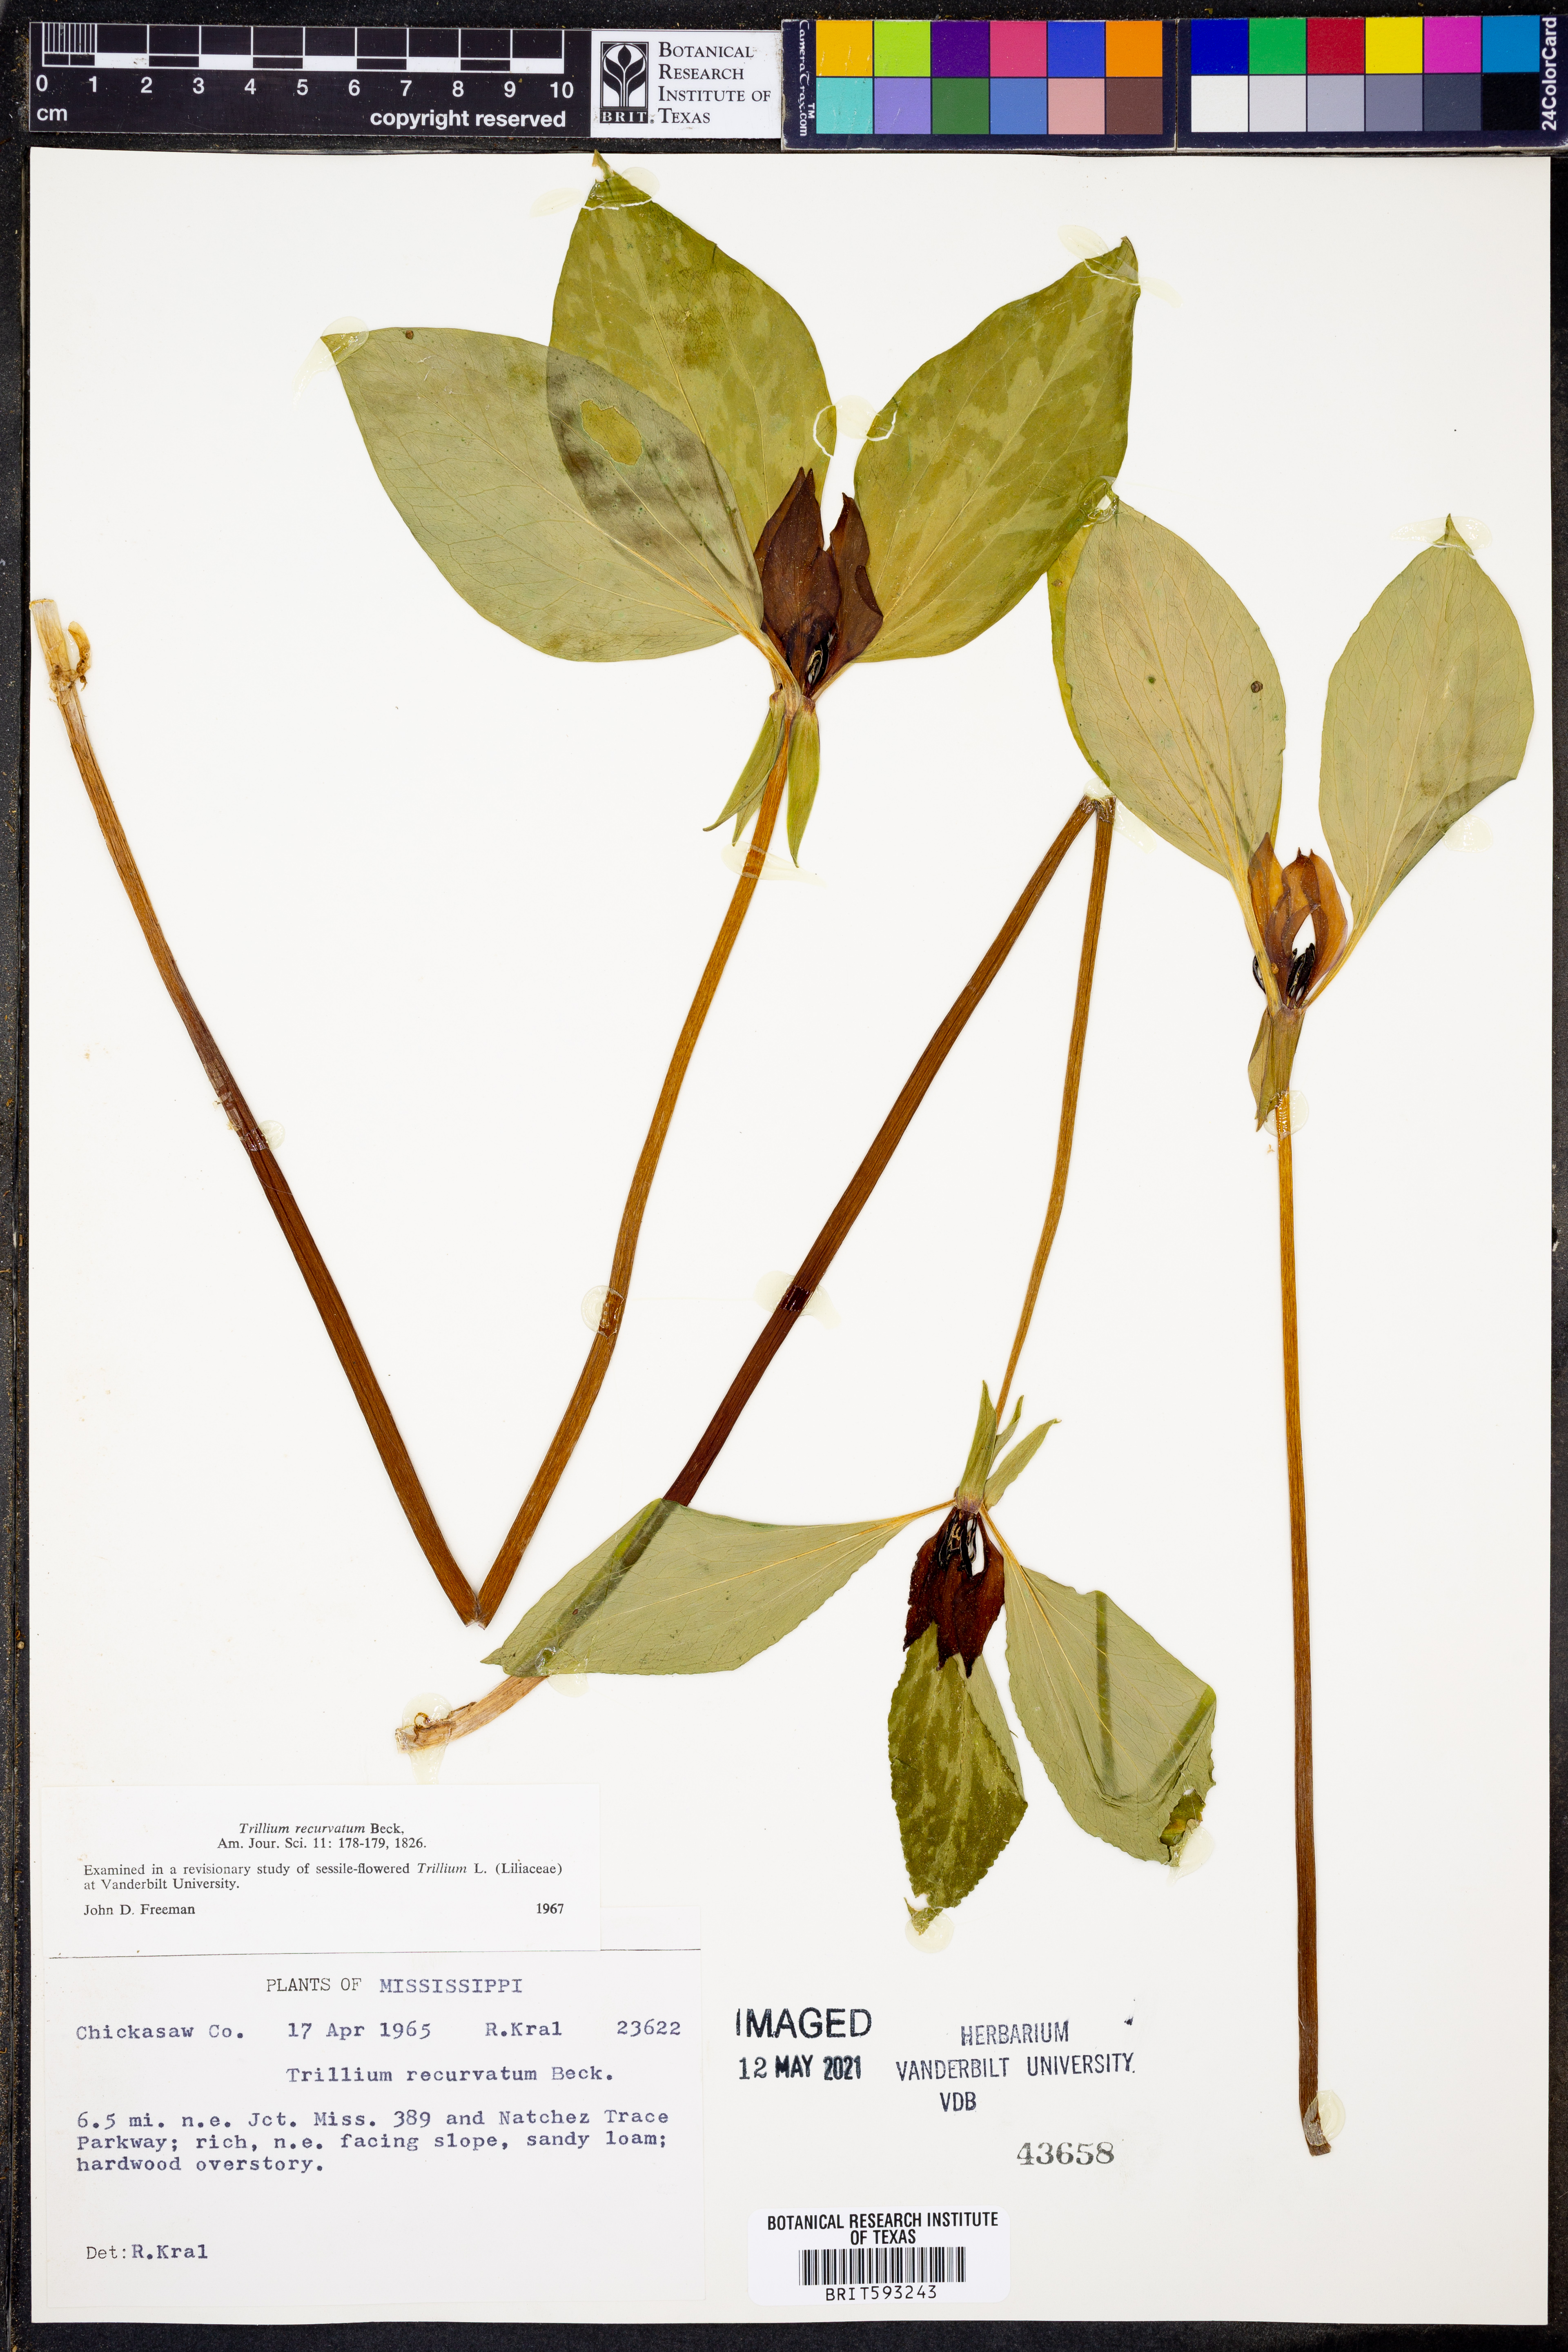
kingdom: Plantae
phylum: Tracheophyta
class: Liliopsida
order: Liliales
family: Melanthiaceae
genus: Trillium
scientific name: Trillium recurvatum
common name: Bloody butcher
